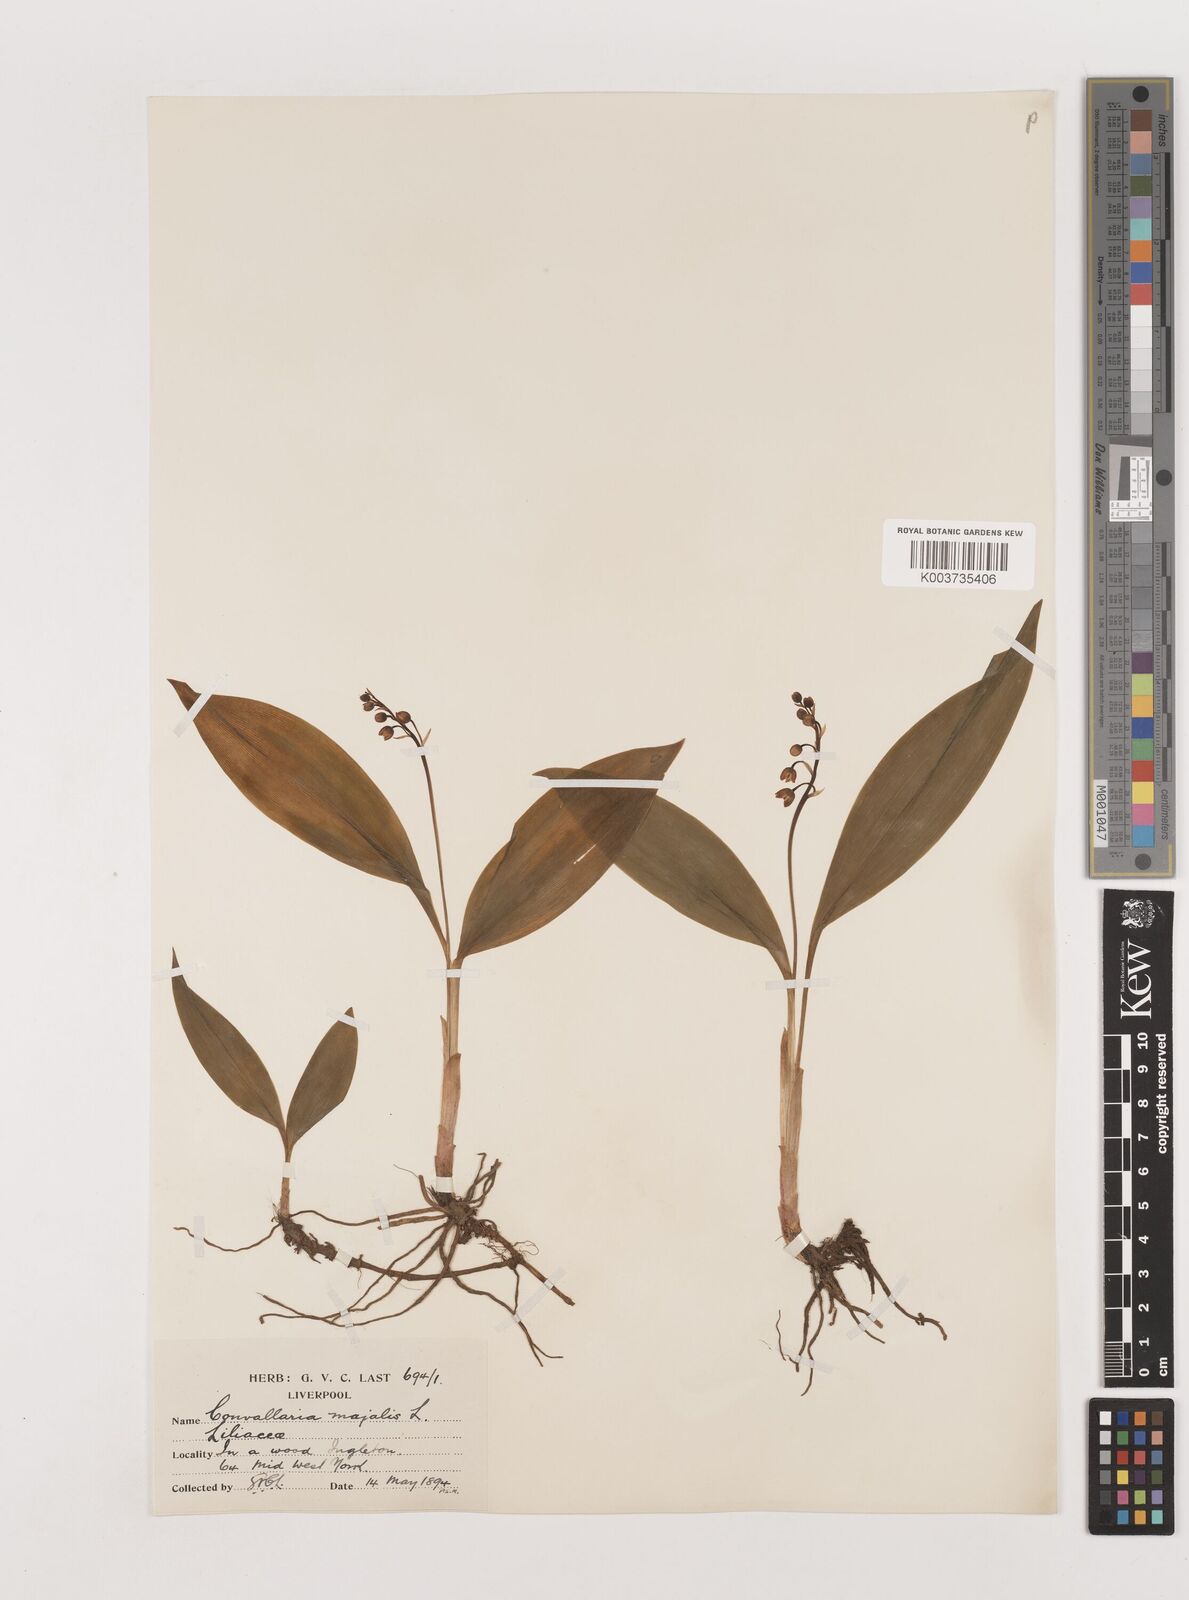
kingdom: Plantae
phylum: Tracheophyta
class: Liliopsida
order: Asparagales
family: Asparagaceae
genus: Convallaria
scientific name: Convallaria majalis
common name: Lily-of-the-valley
